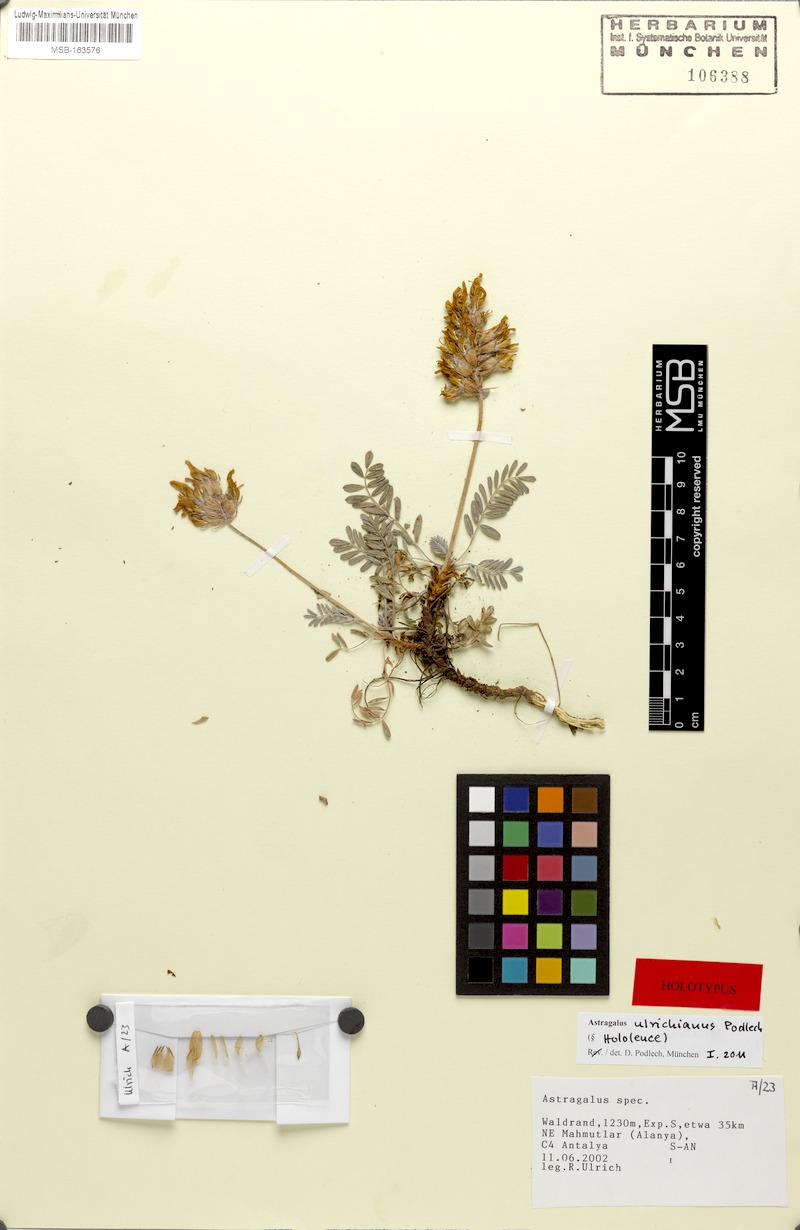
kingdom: Plantae
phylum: Tracheophyta
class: Magnoliopsida
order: Fabales
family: Fabaceae
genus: Astragalus
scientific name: Astragalus sibthorpianus
